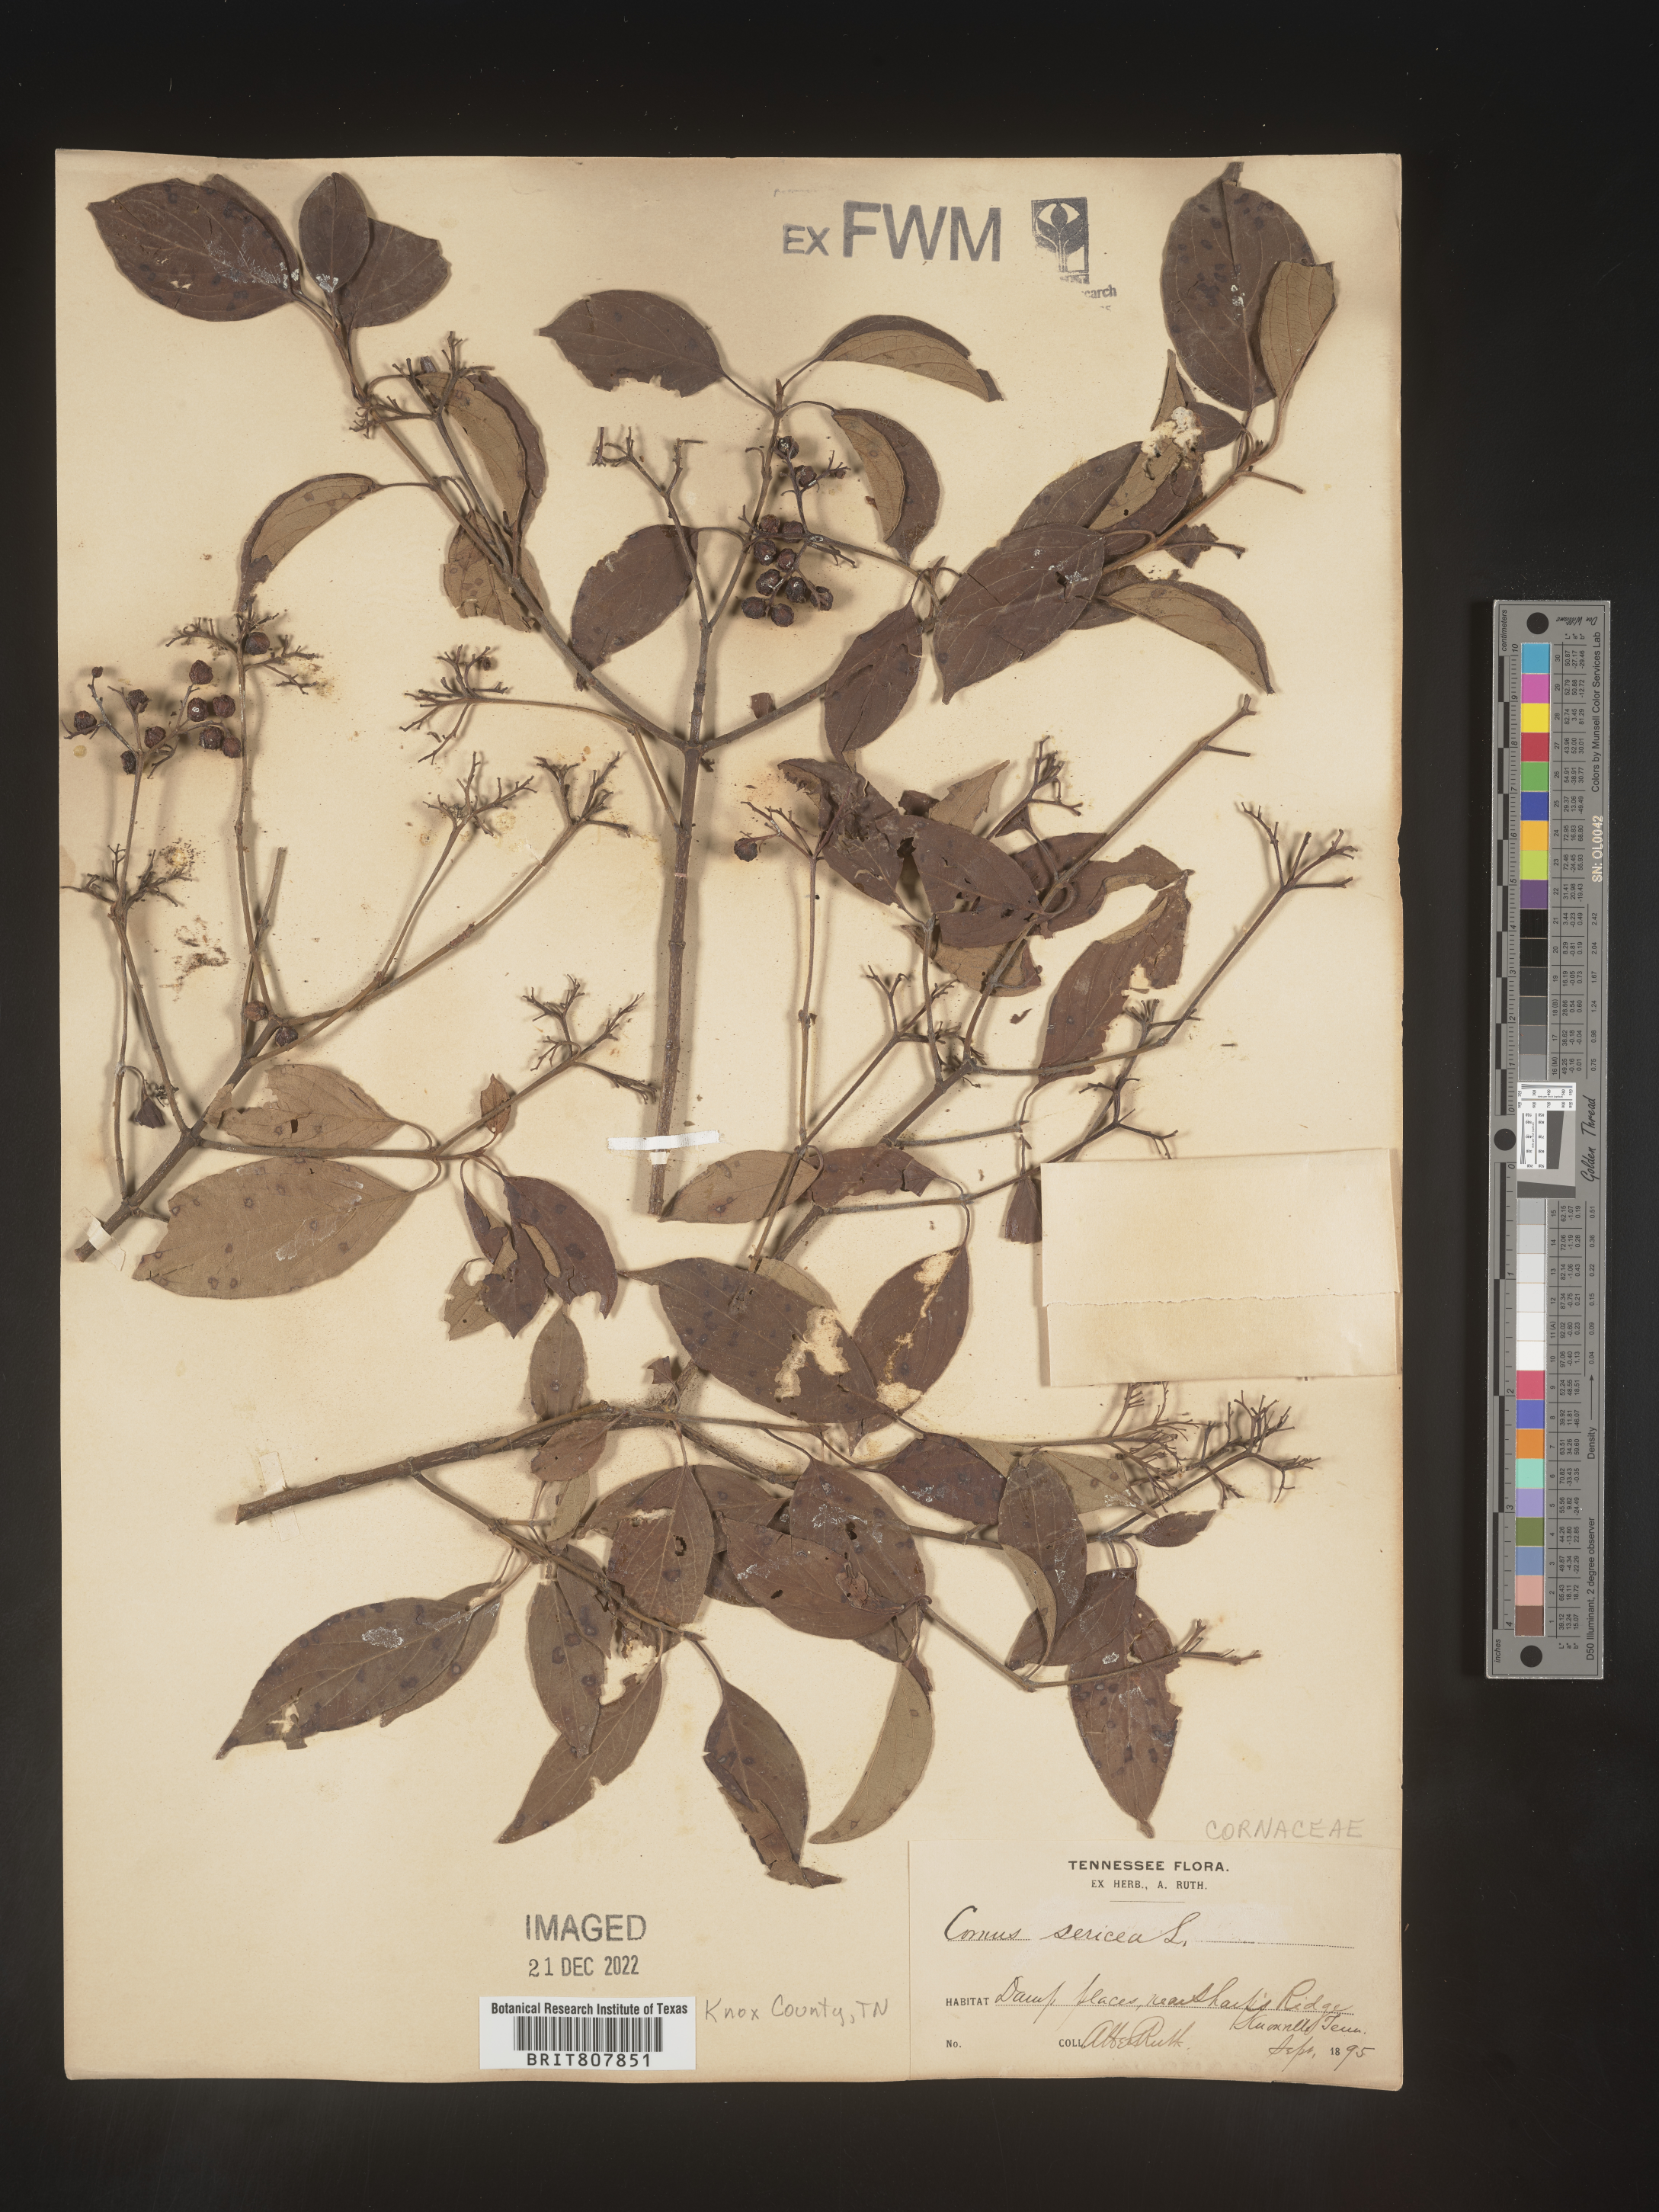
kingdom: Plantae
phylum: Tracheophyta
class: Magnoliopsida
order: Cornales
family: Cornaceae
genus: Cornus
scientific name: Cornus
